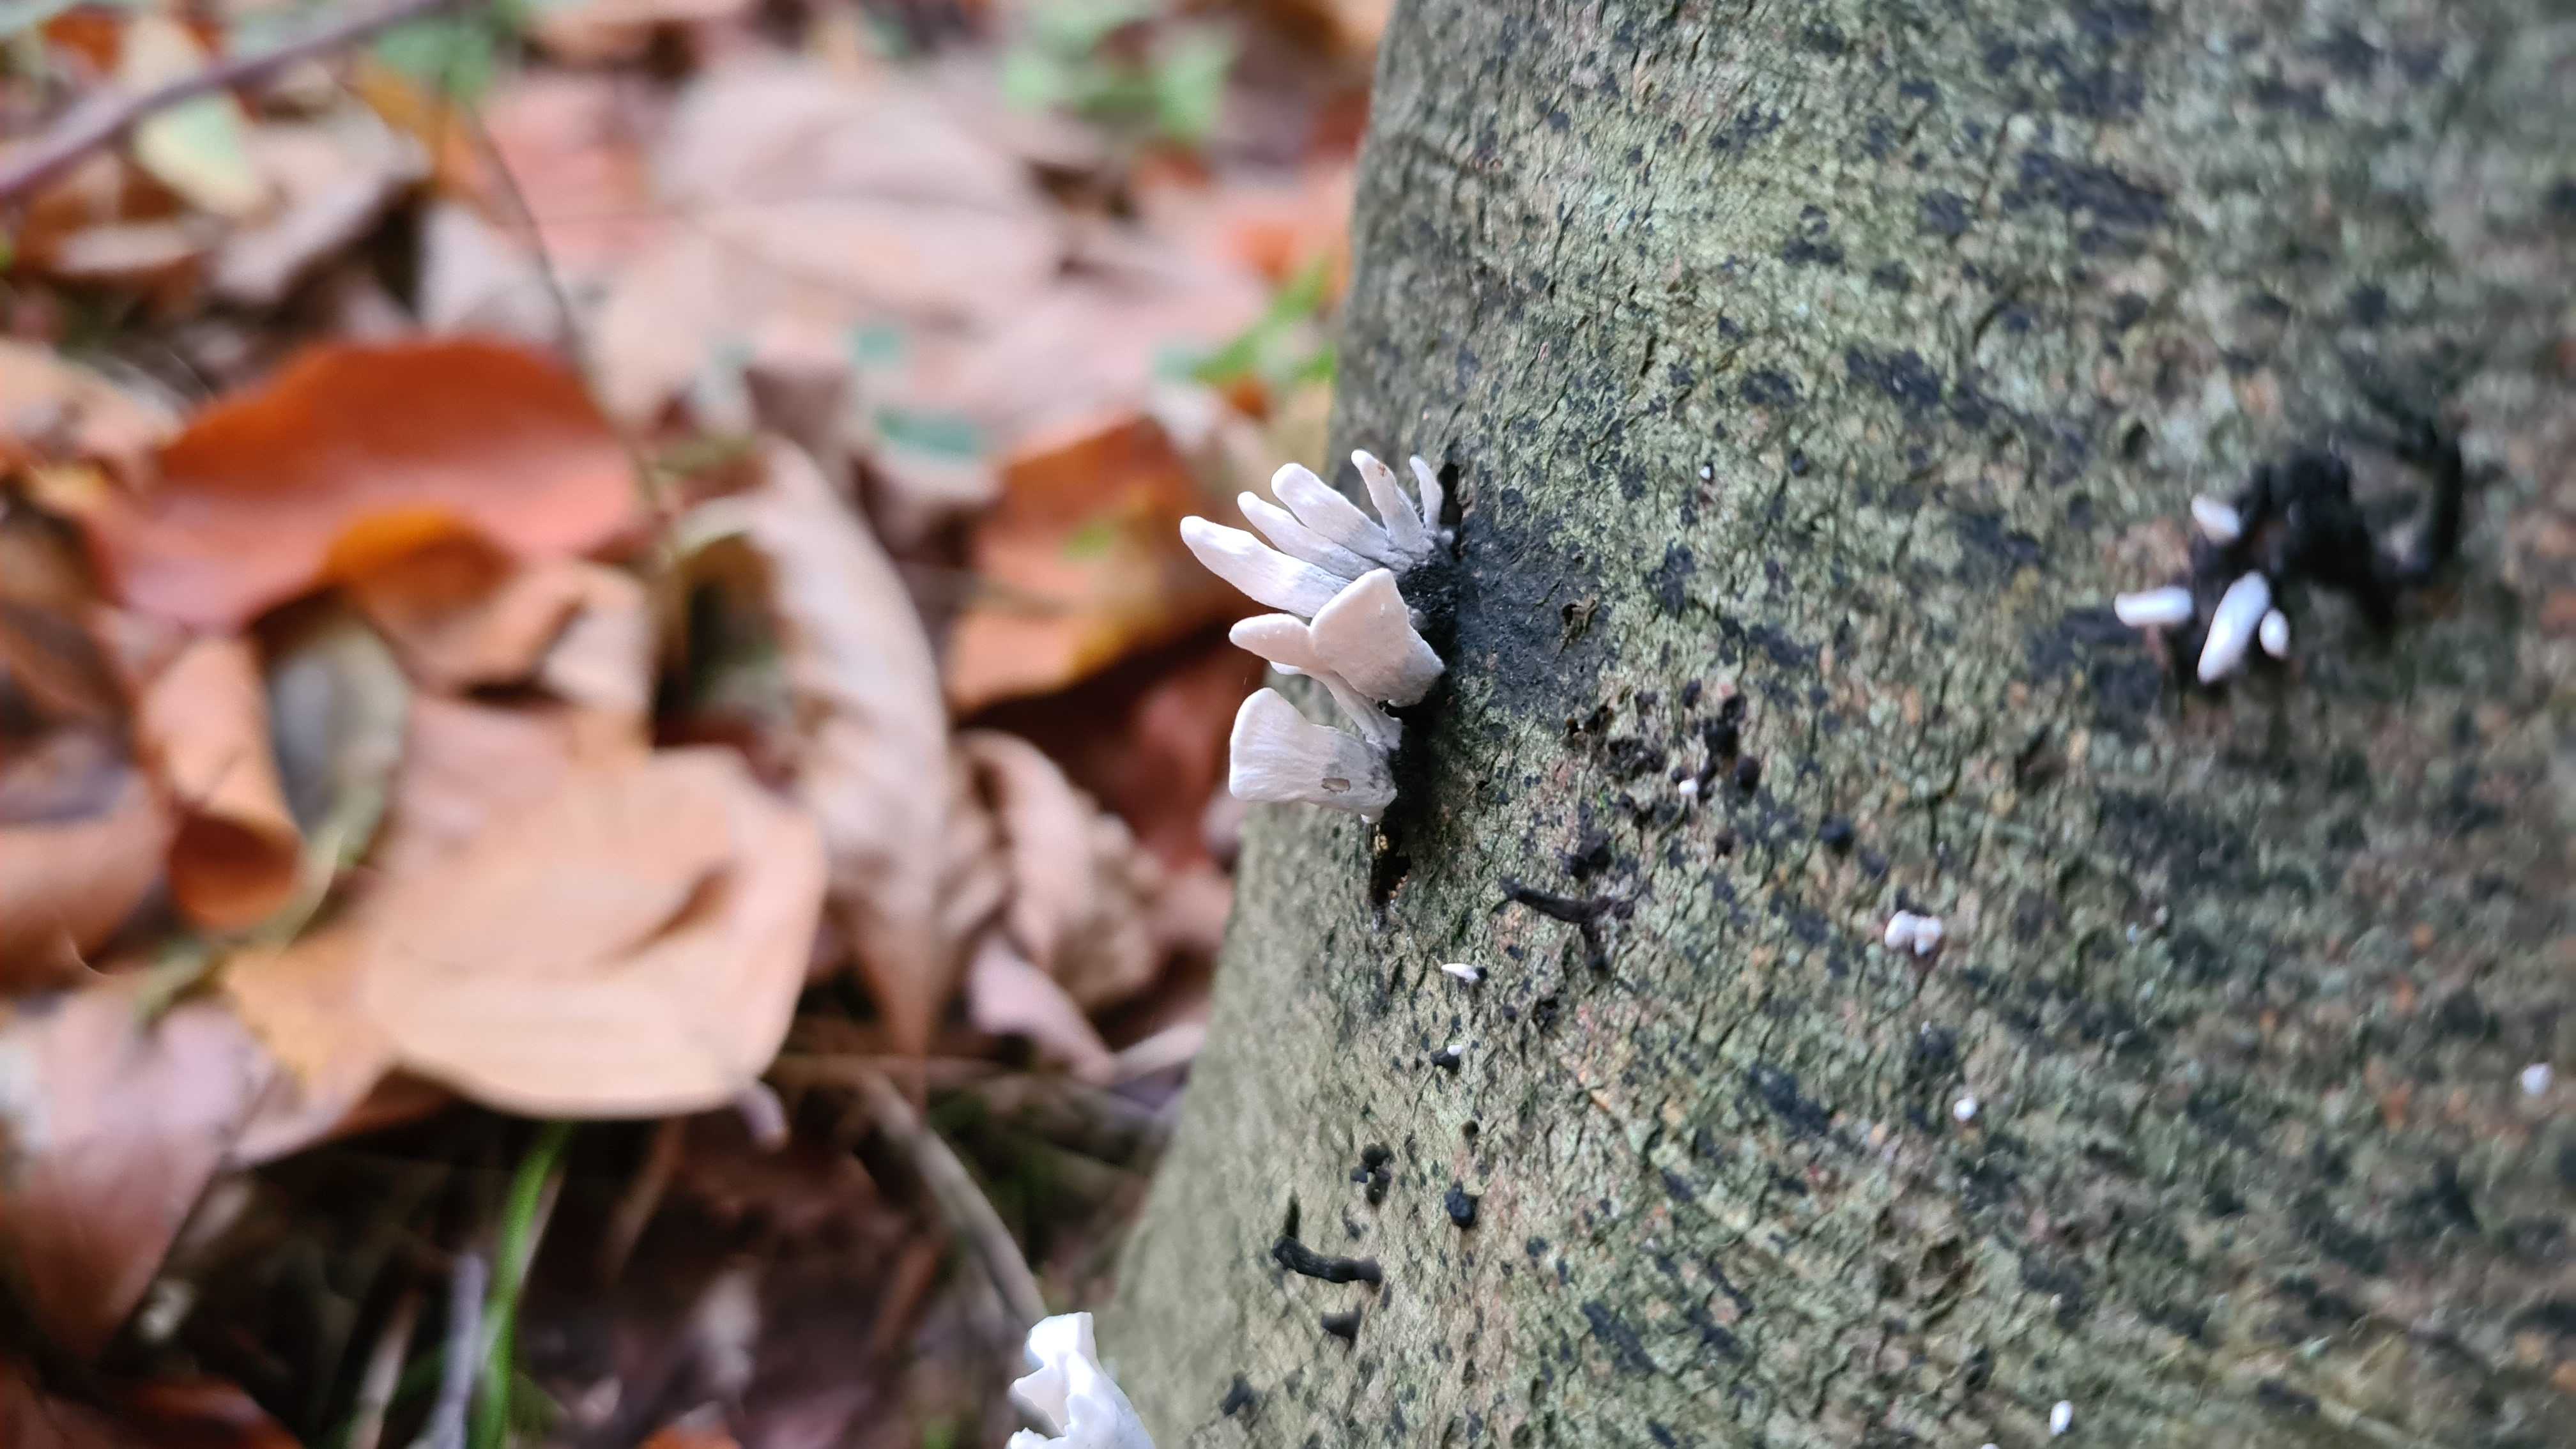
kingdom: Fungi
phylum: Ascomycota
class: Sordariomycetes
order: Xylariales
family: Xylariaceae
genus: Xylaria
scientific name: Xylaria hypoxylon
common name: grenet stødsvamp
